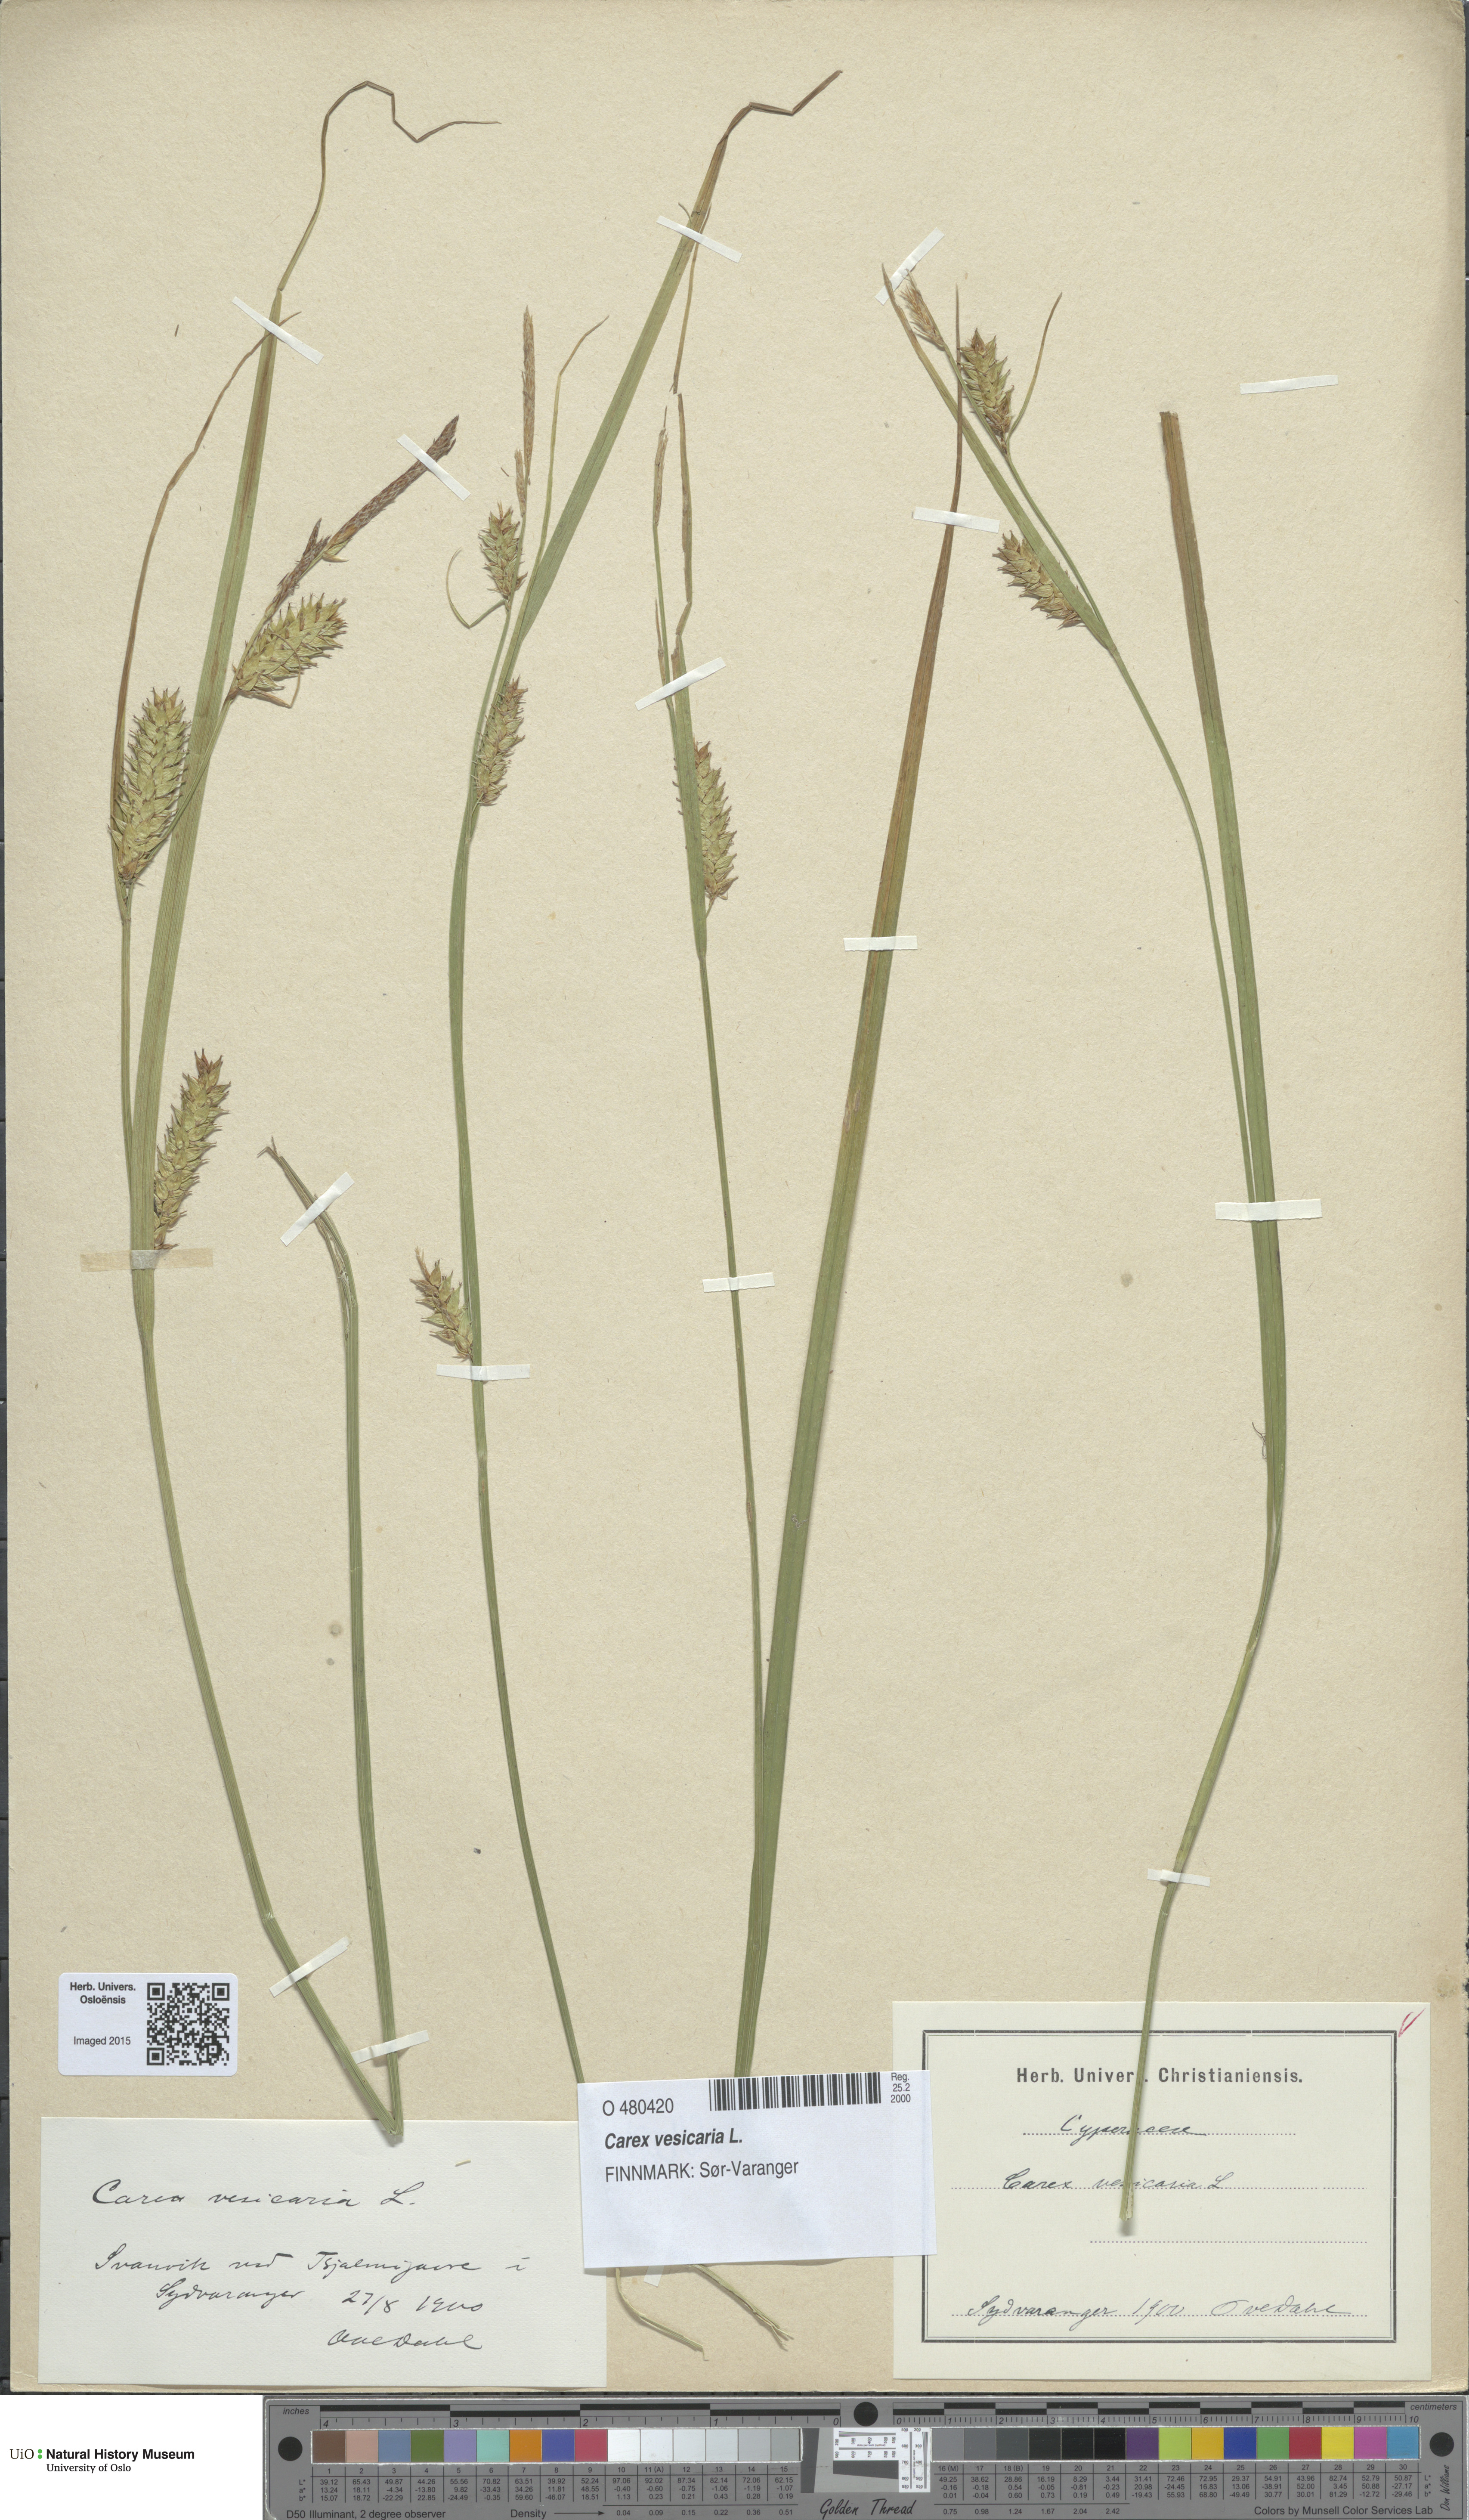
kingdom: Plantae
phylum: Tracheophyta
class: Liliopsida
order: Poales
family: Cyperaceae
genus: Carex
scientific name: Carex vesicaria
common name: Bladder-sedge
